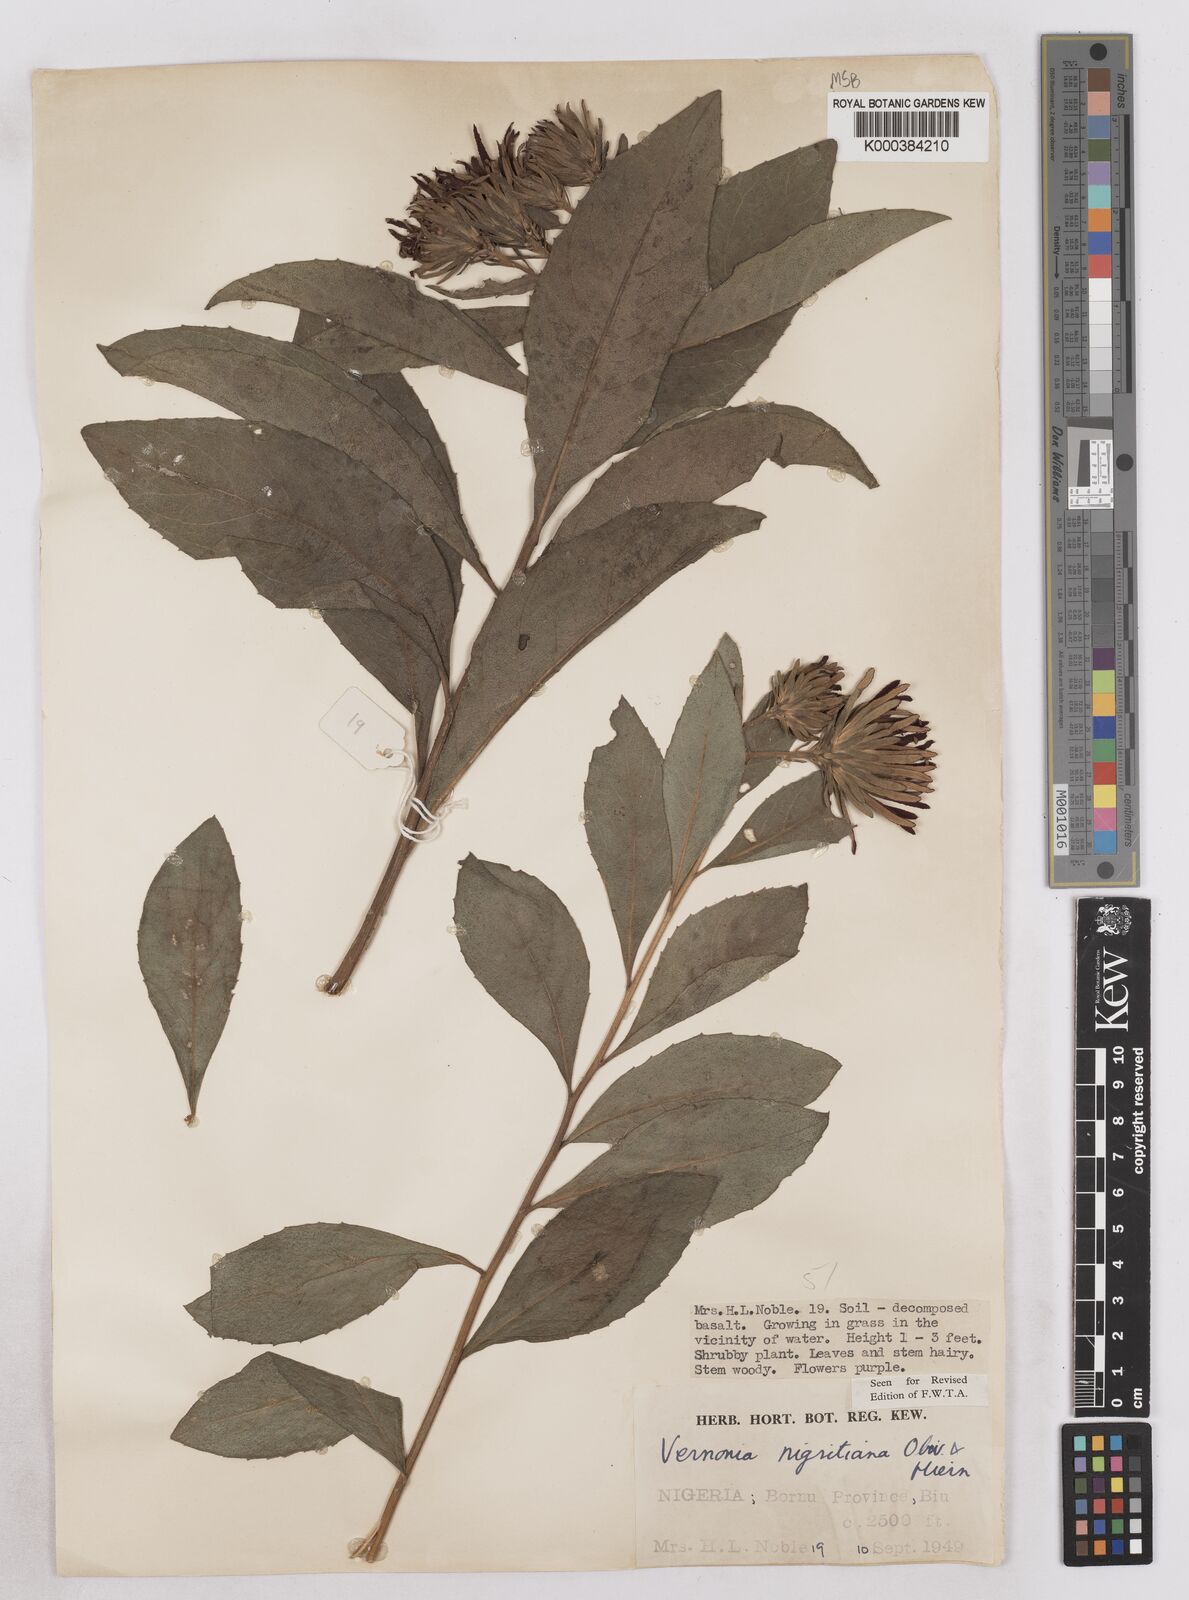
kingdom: Plantae
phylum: Tracheophyta
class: Magnoliopsida
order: Asterales
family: Asteraceae
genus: Linzia
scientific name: Linzia nigritiana
